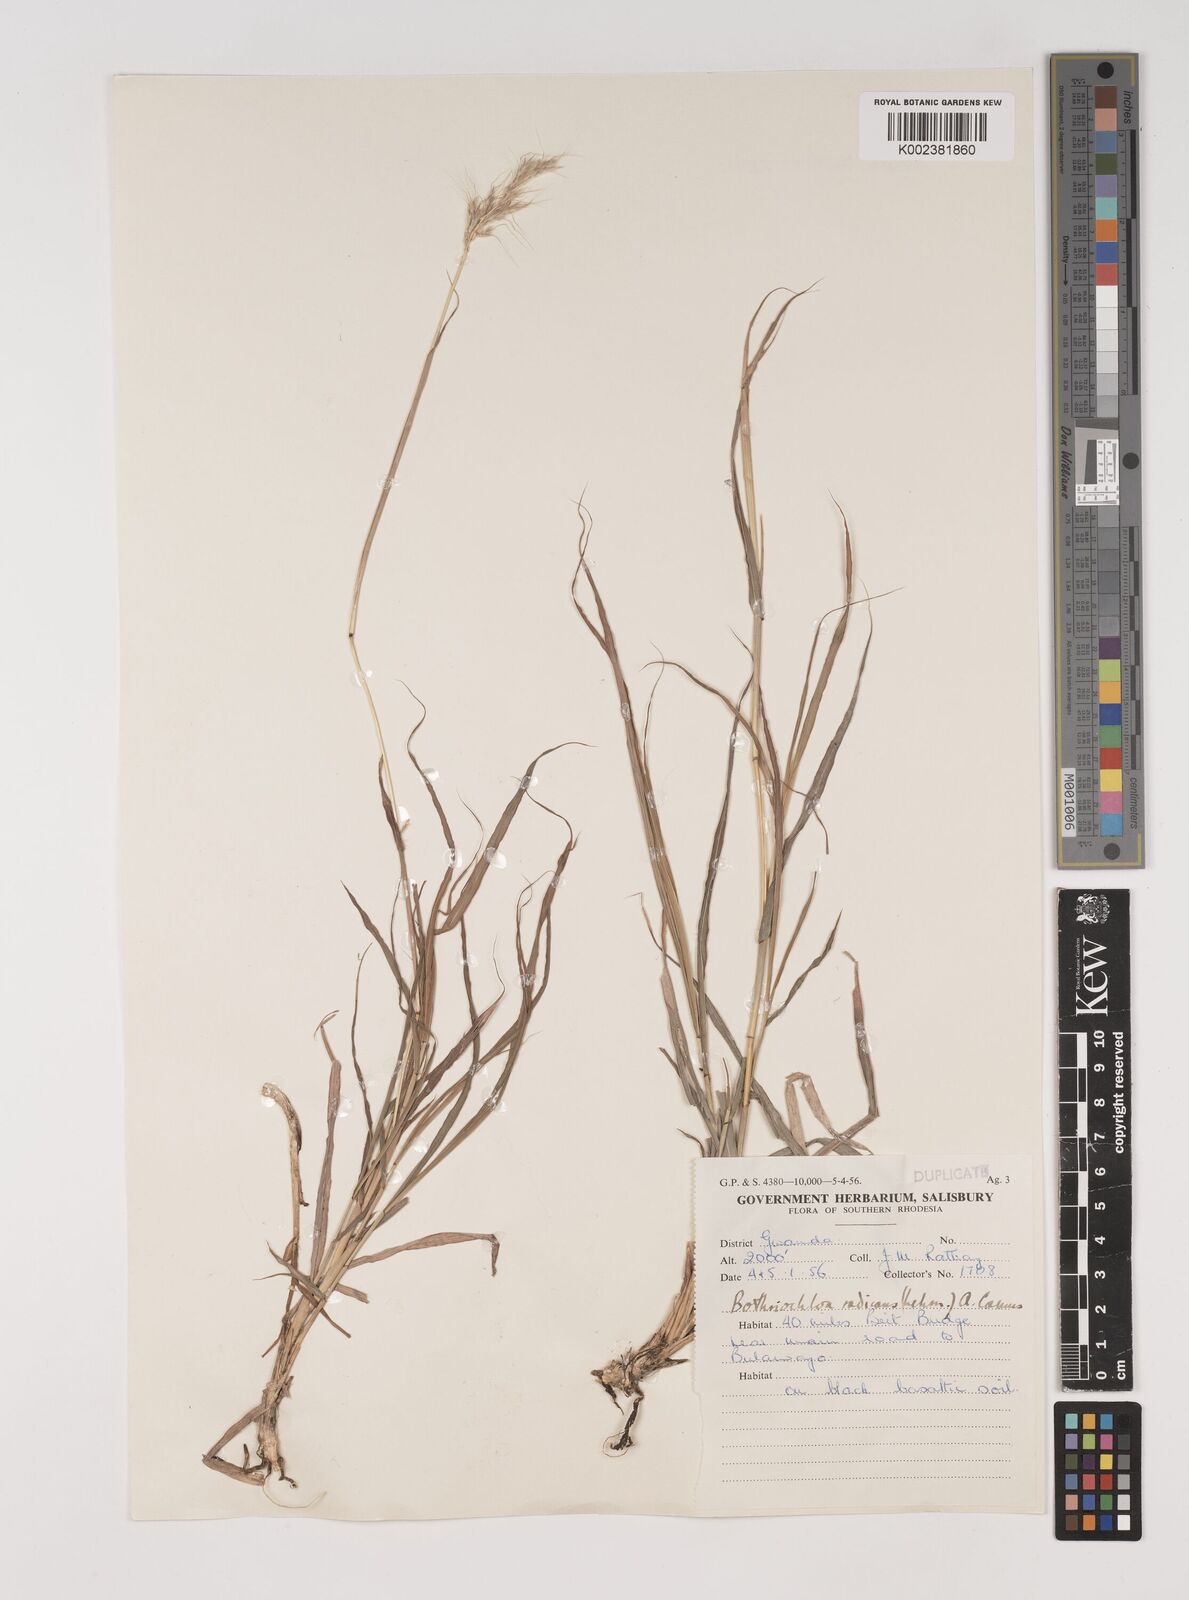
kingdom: Plantae
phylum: Tracheophyta
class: Liliopsida
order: Poales
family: Poaceae
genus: Bothriochloa
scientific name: Bothriochloa radicans
